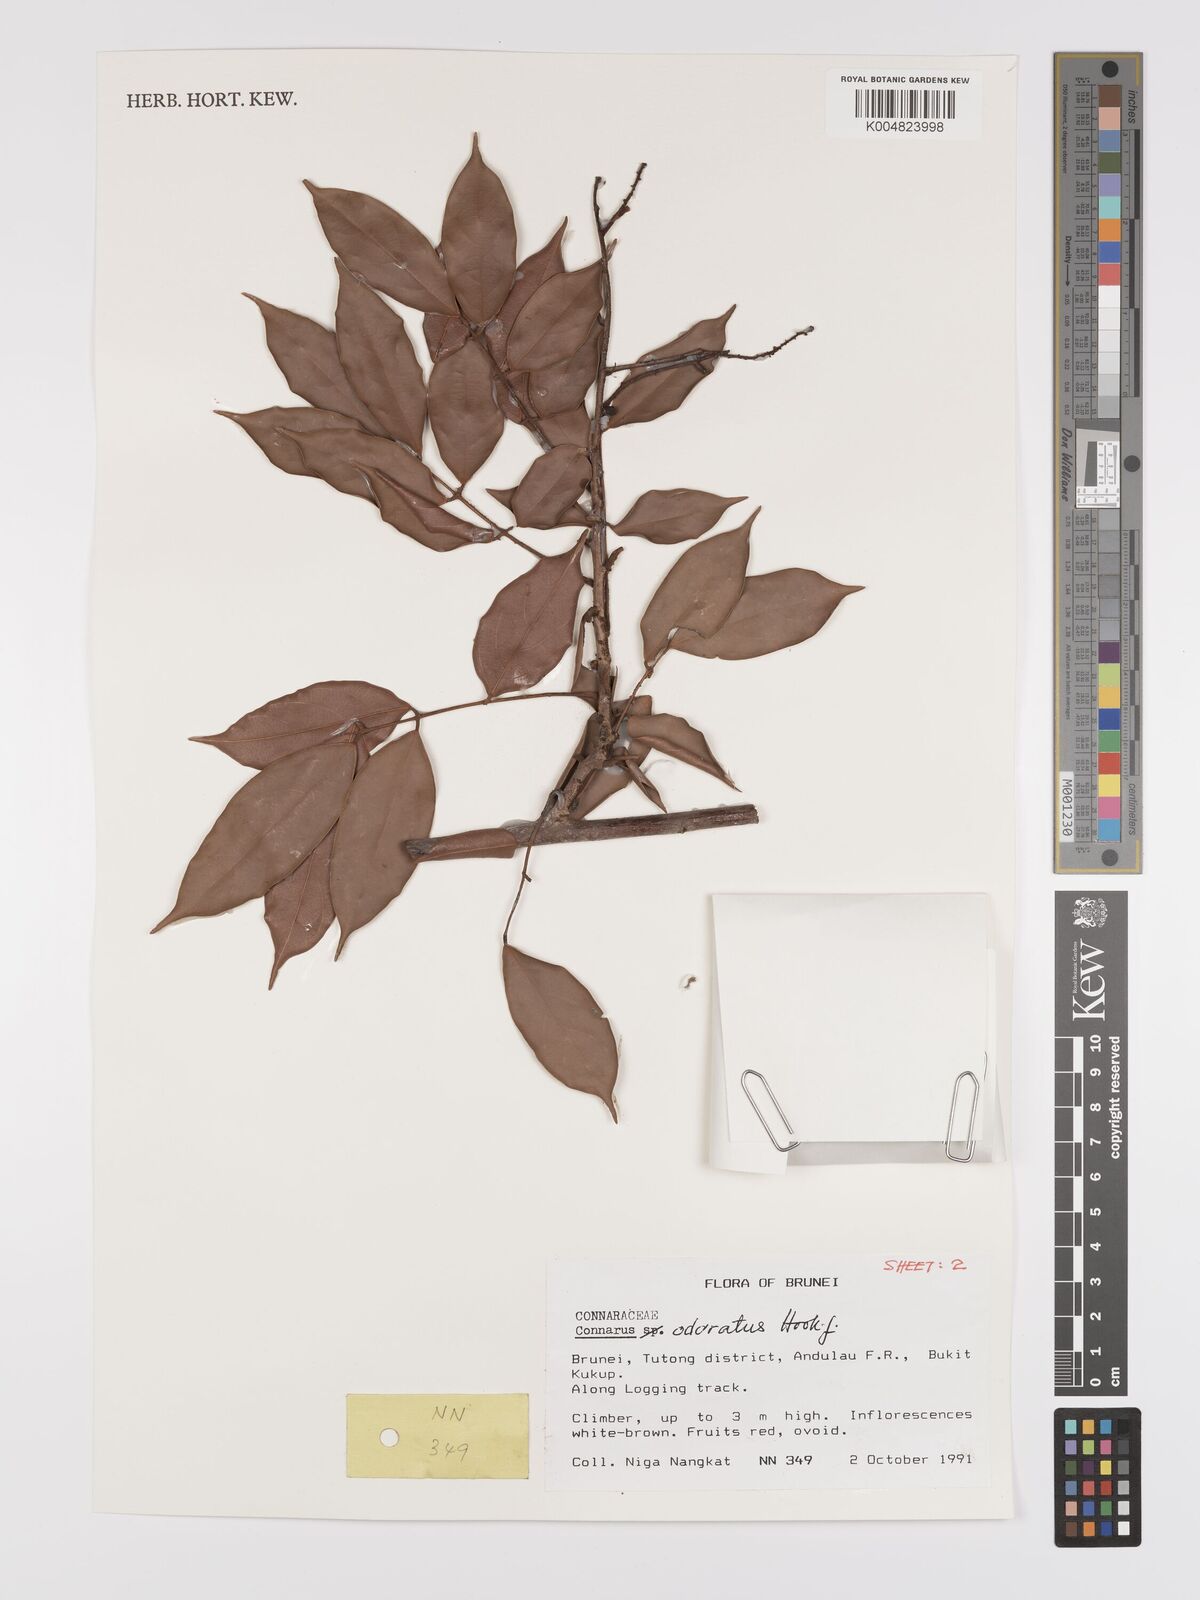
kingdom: Plantae
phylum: Tracheophyta
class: Magnoliopsida
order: Oxalidales
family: Connaraceae
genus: Connarus
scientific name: Connarus odoratus
